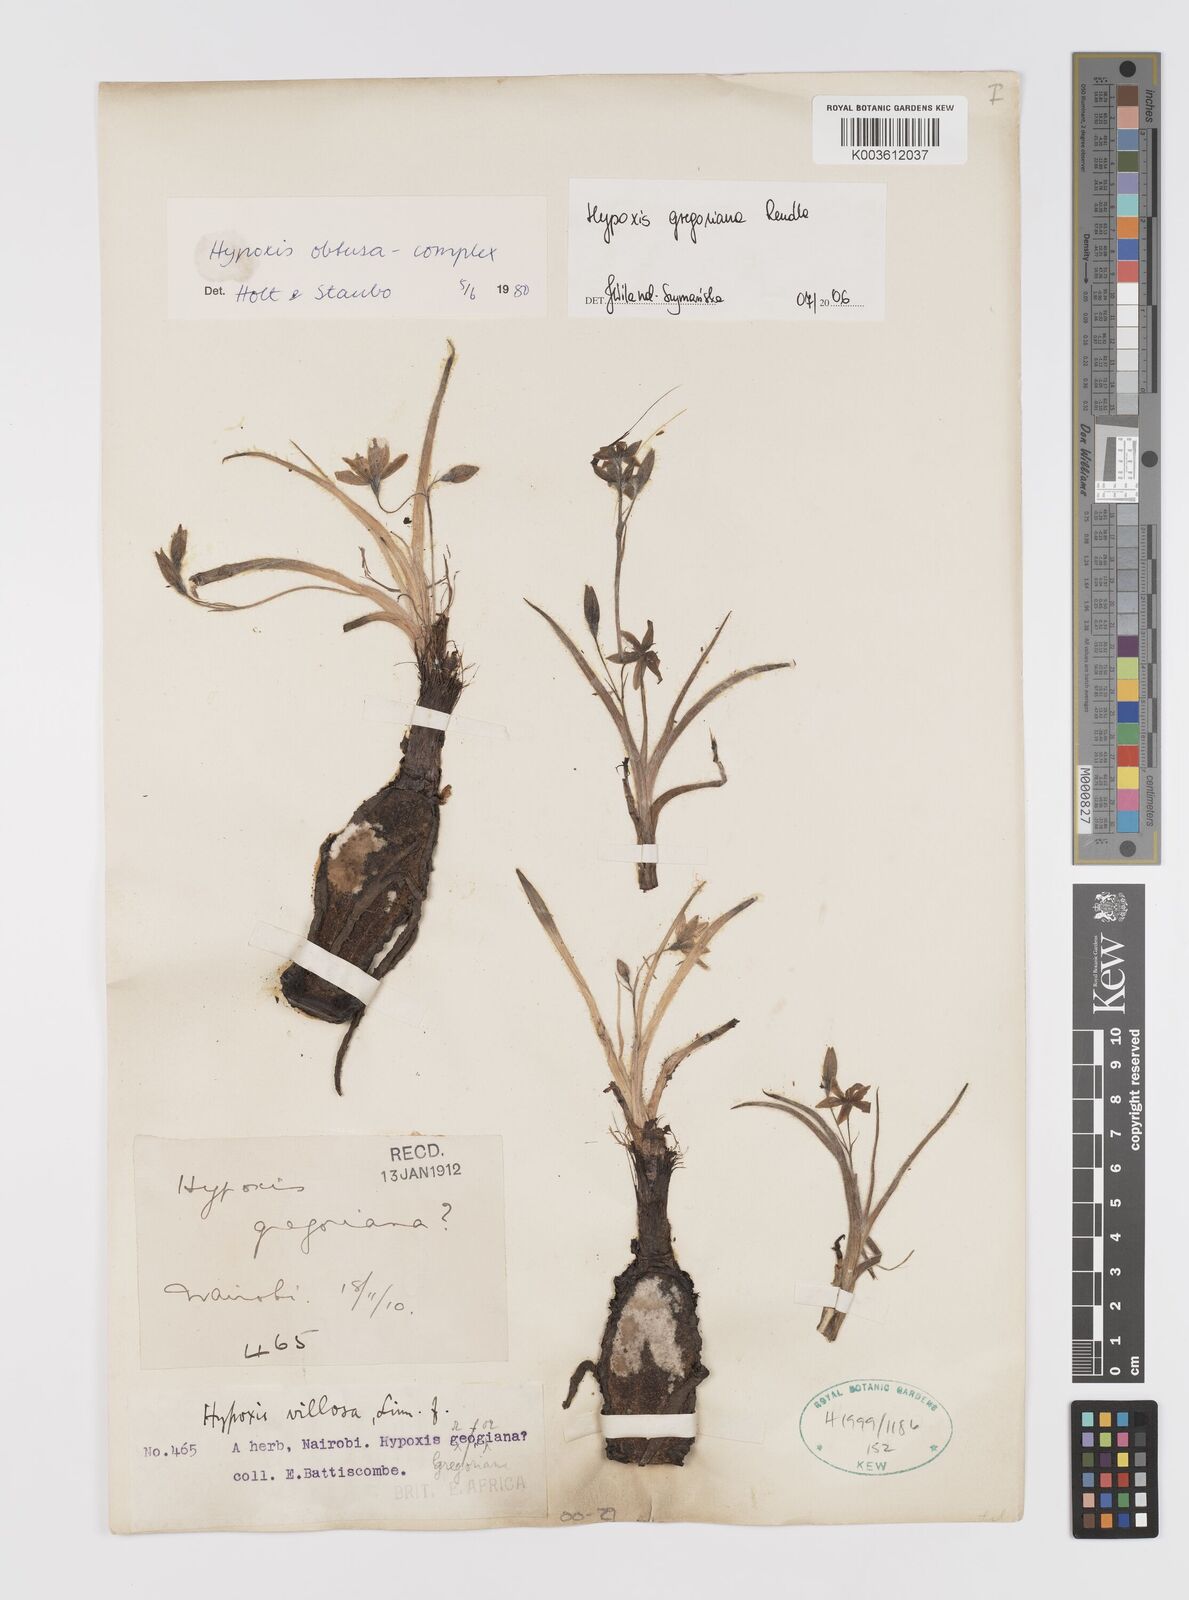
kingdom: Plantae
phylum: Tracheophyta
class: Liliopsida
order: Asparagales
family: Hypoxidaceae
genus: Hypoxis
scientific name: Hypoxis gregoriana
